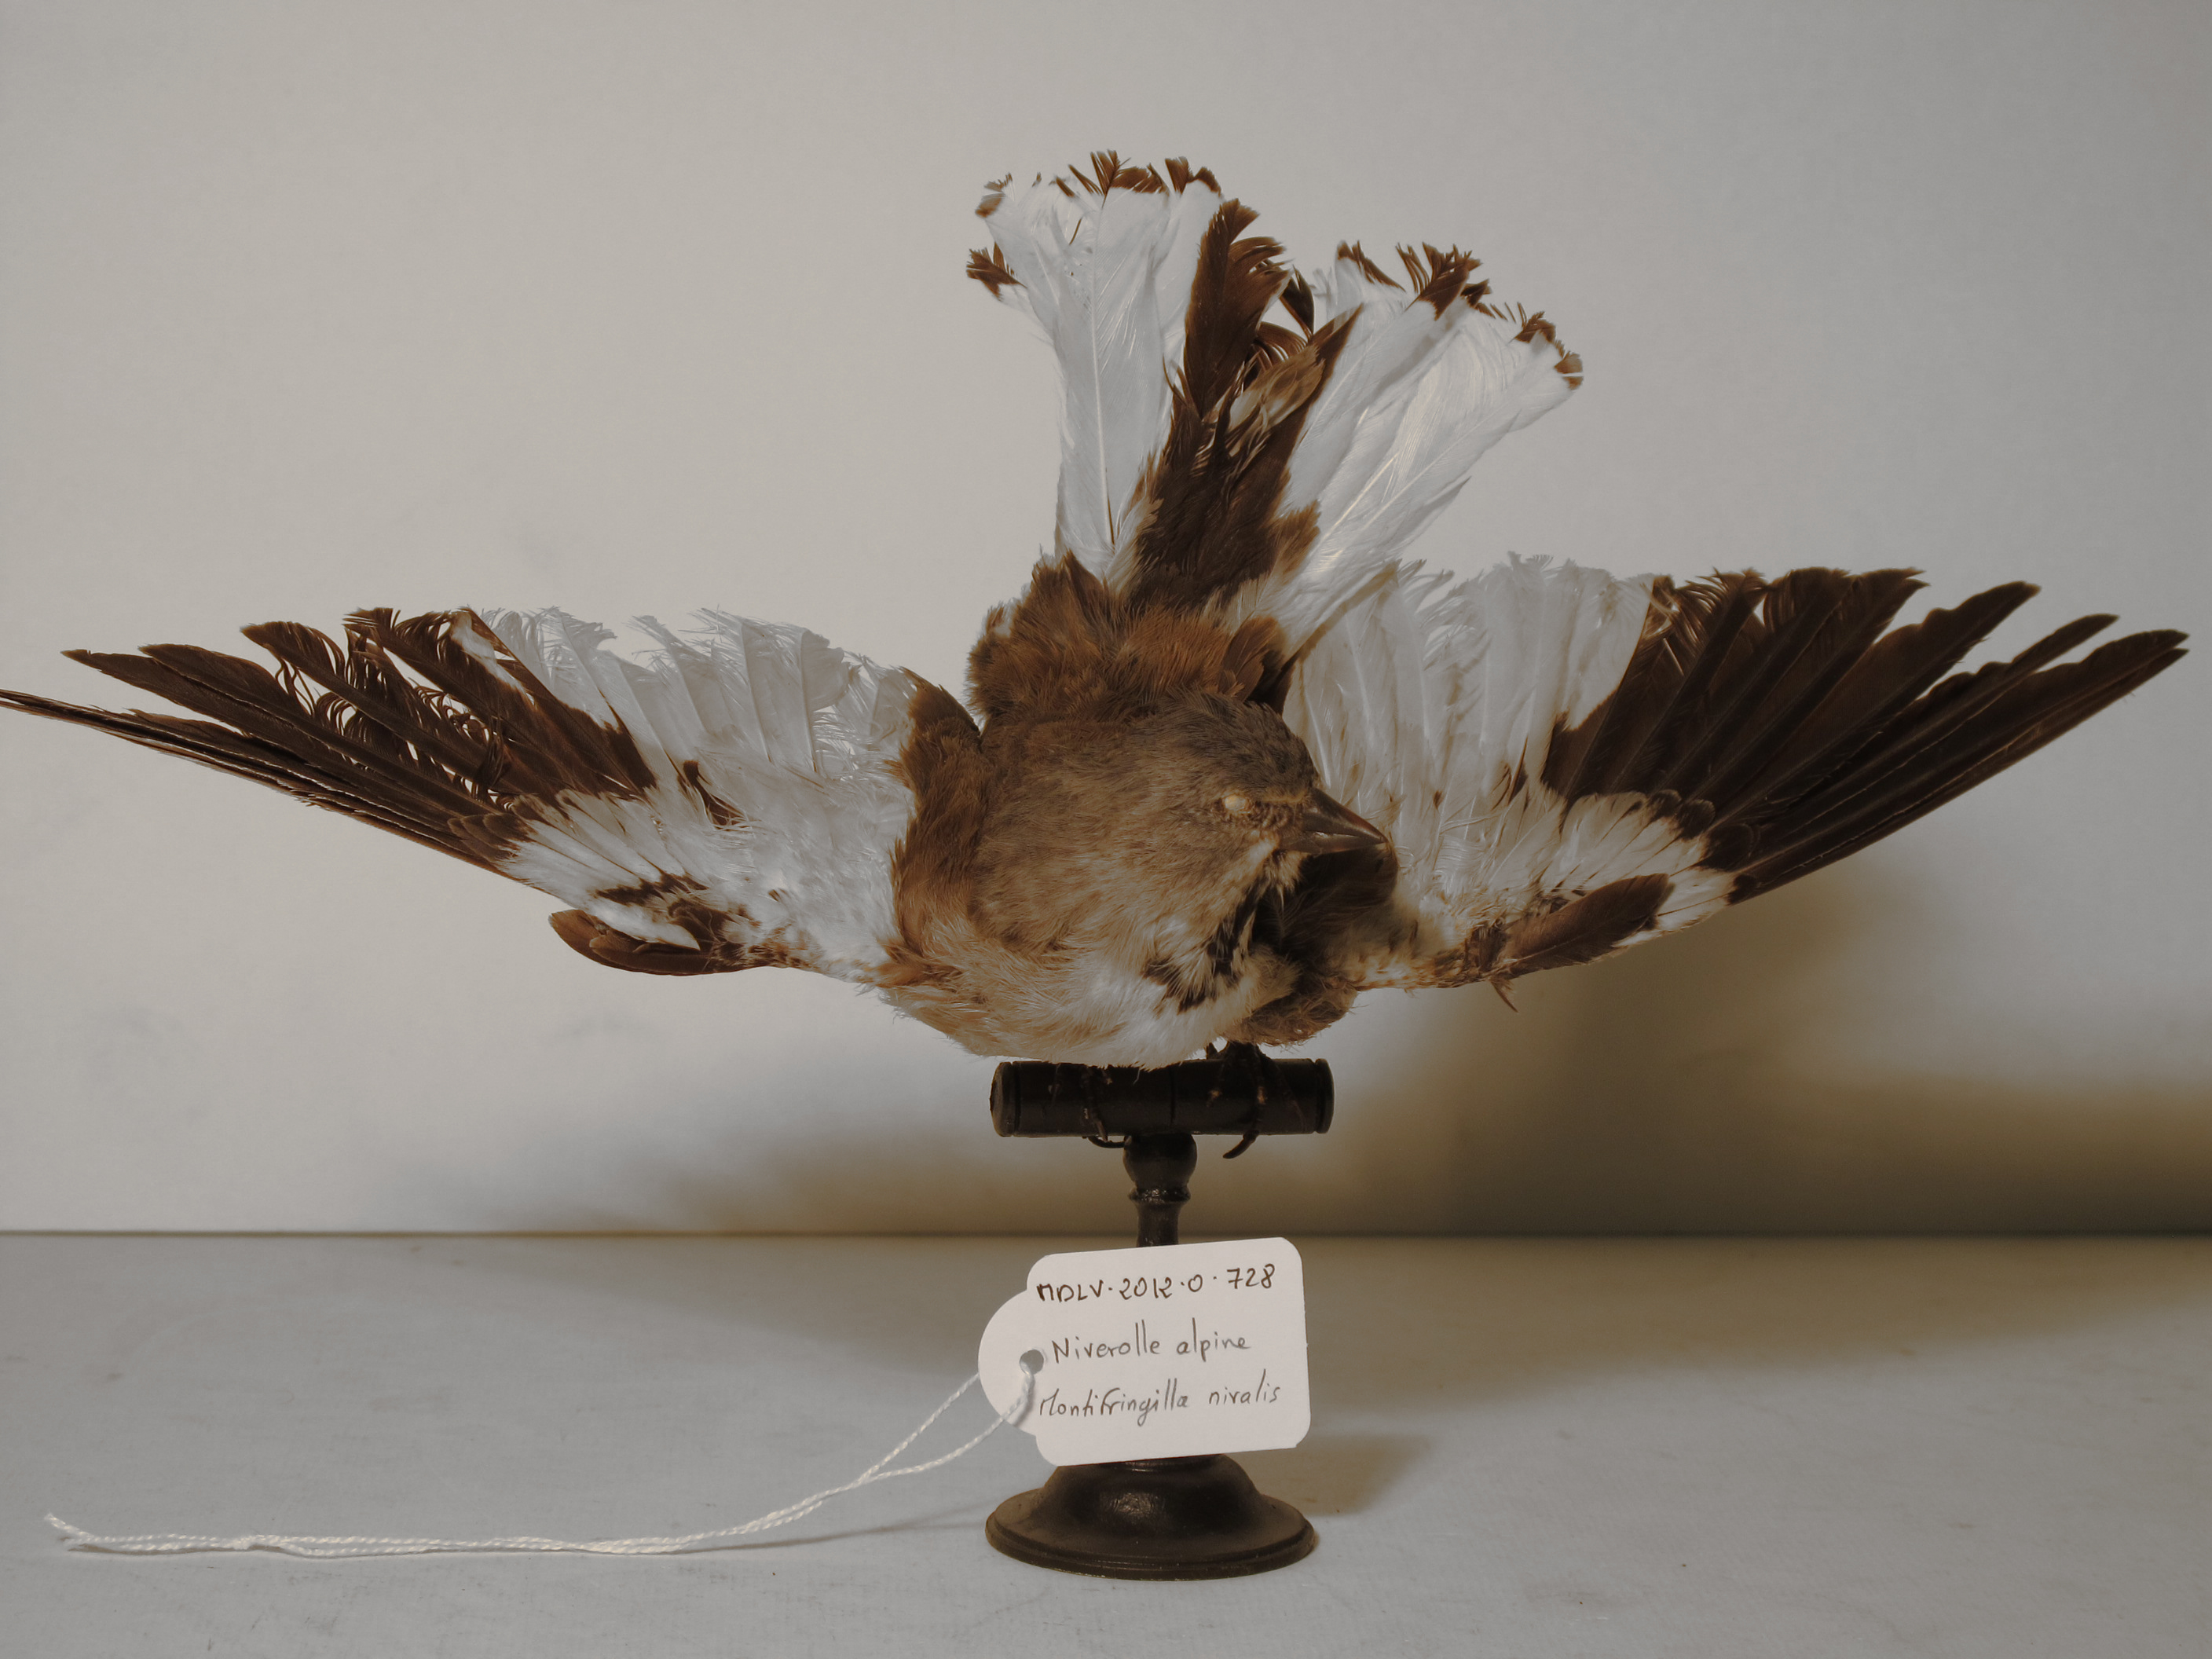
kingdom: Animalia
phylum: Chordata
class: Aves
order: Passeriformes
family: Passeridae
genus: Montifringilla
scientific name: Montifringilla nivalis
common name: White-winged Snowfinch
